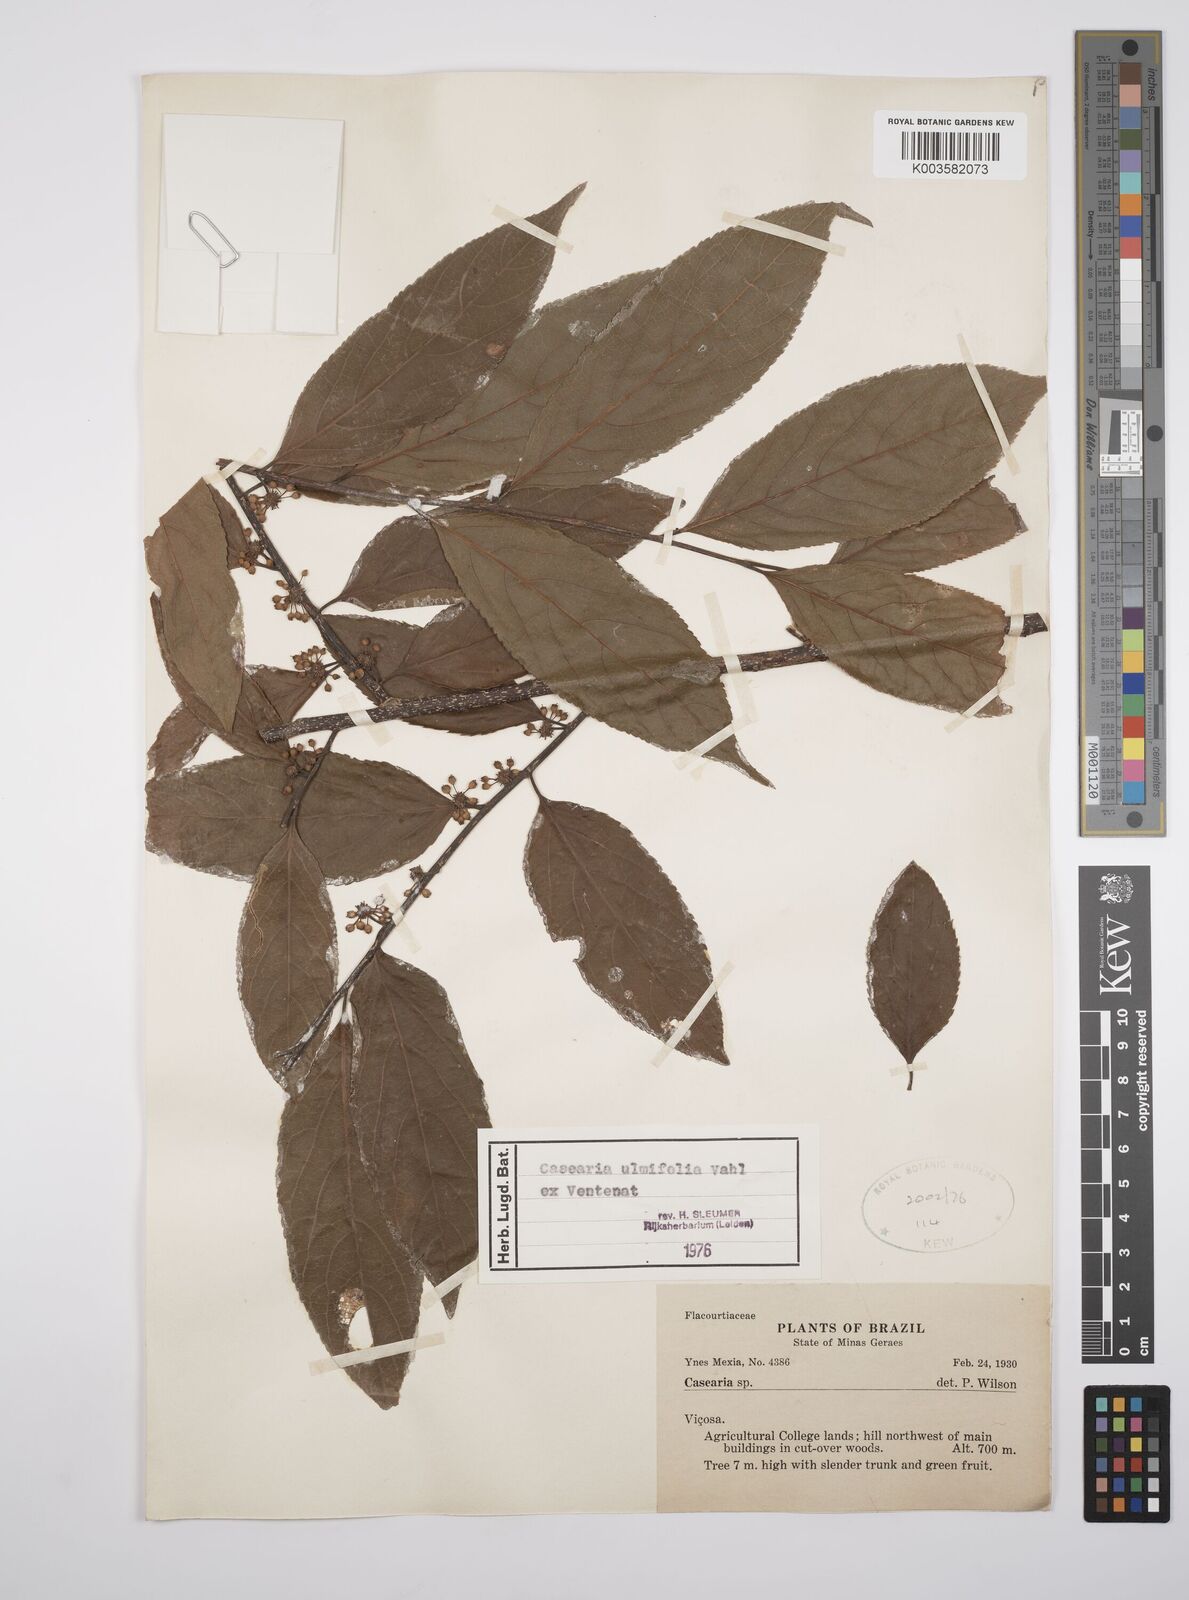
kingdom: Plantae
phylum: Tracheophyta
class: Magnoliopsida
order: Malpighiales
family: Salicaceae
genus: Casearia
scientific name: Casearia ulmifolia
